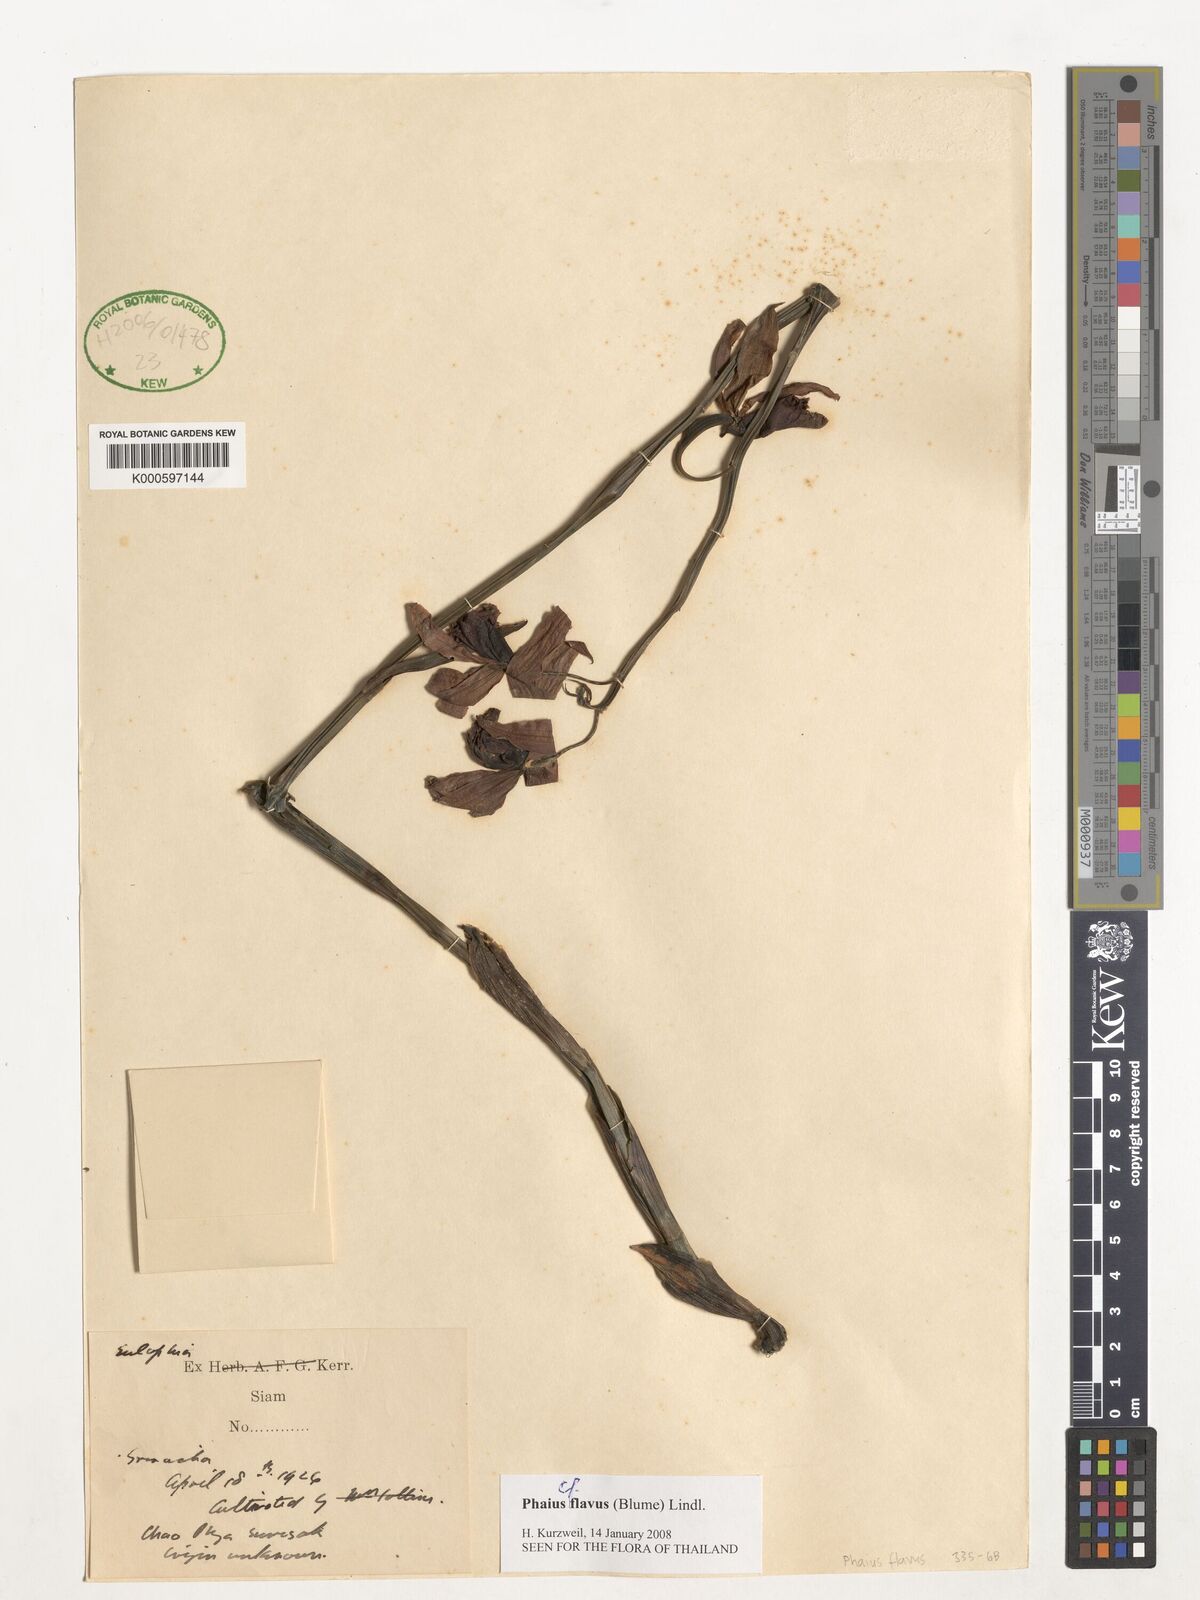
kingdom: Plantae
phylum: Tracheophyta
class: Liliopsida
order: Asparagales
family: Orchidaceae
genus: Calanthe
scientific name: Calanthe woodfordii
